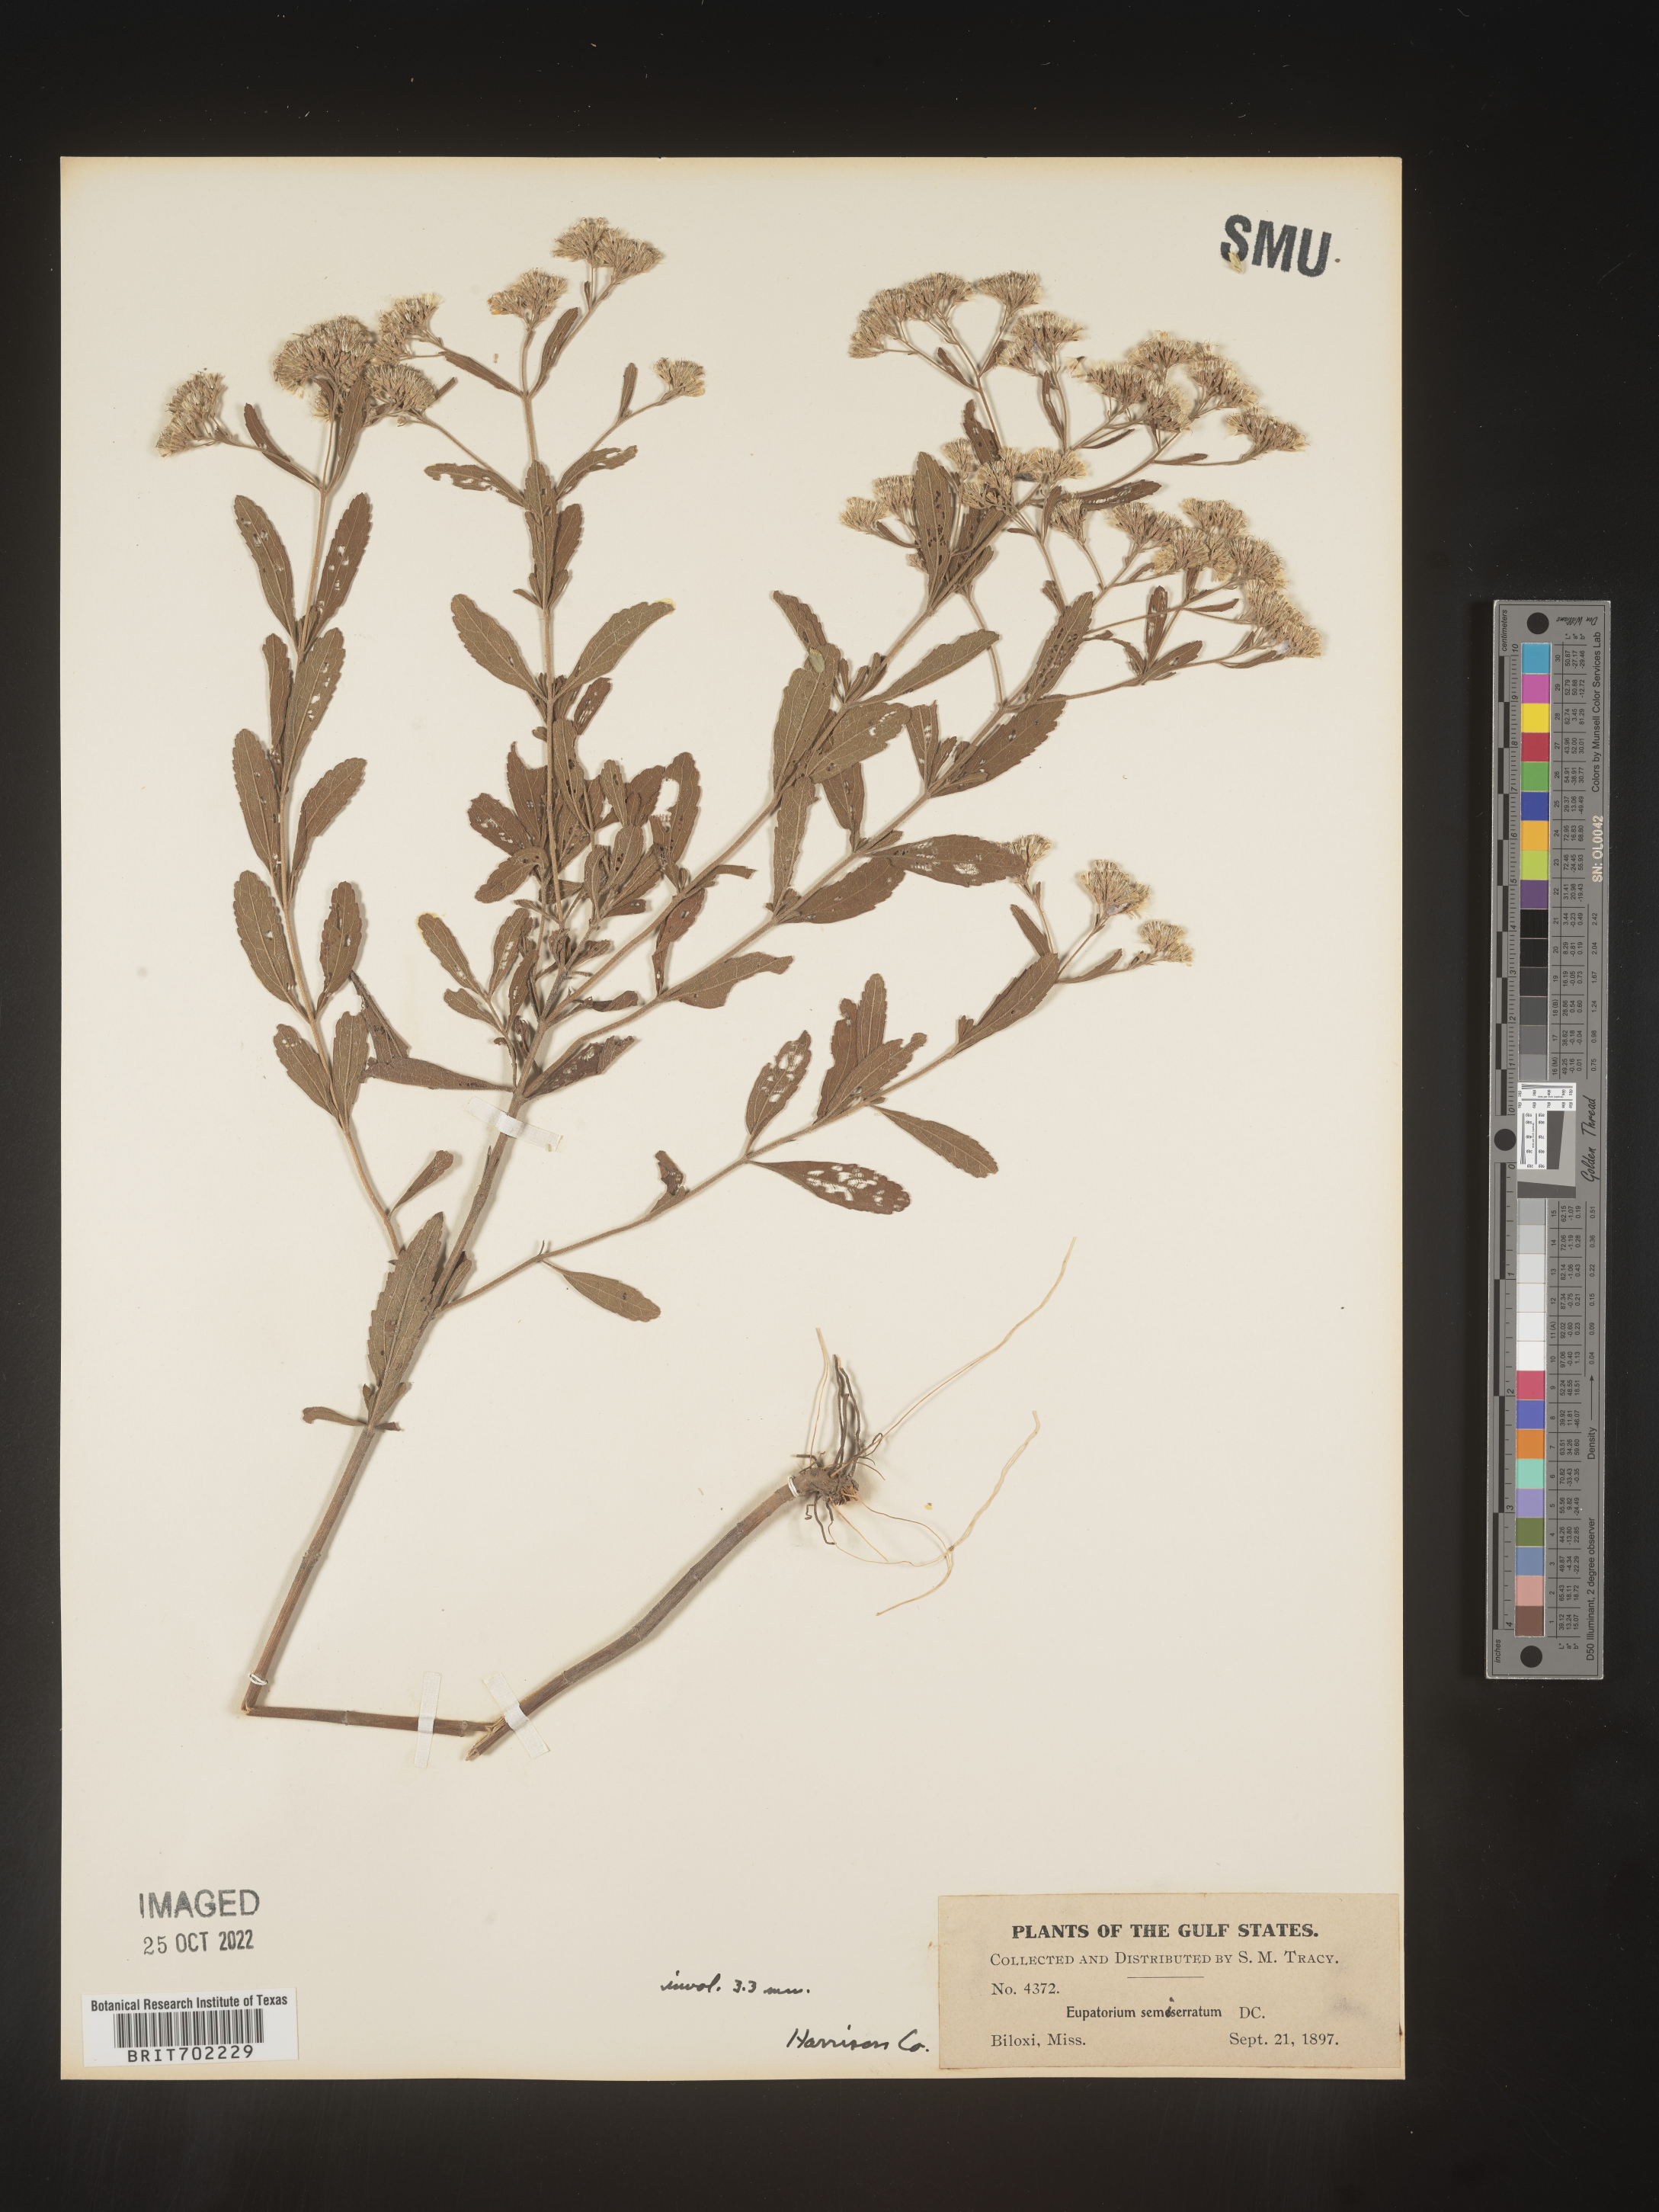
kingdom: Plantae
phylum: Tracheophyta
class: Magnoliopsida
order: Asterales
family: Asteraceae
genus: Eupatorium
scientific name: Eupatorium semiserratum
